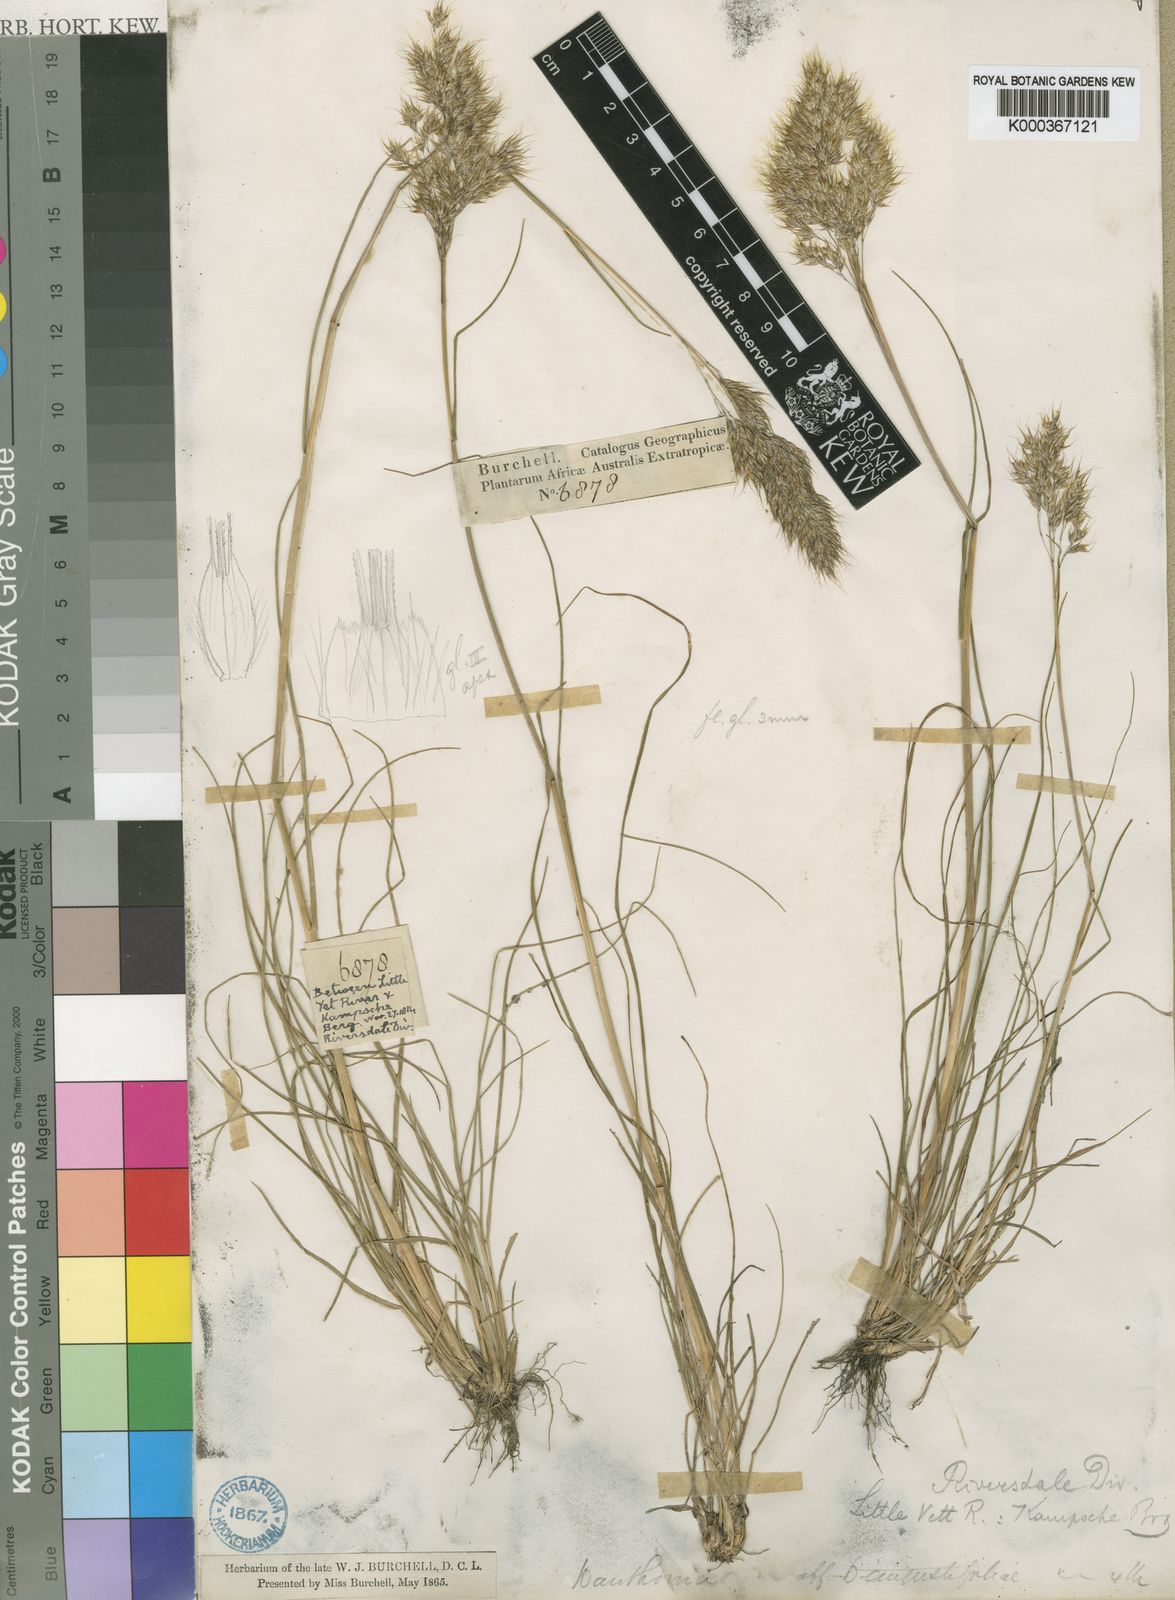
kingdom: Plantae
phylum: Tracheophyta
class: Liliopsida
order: Poales
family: Poaceae
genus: Pentameris
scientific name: Pentameris triseta
